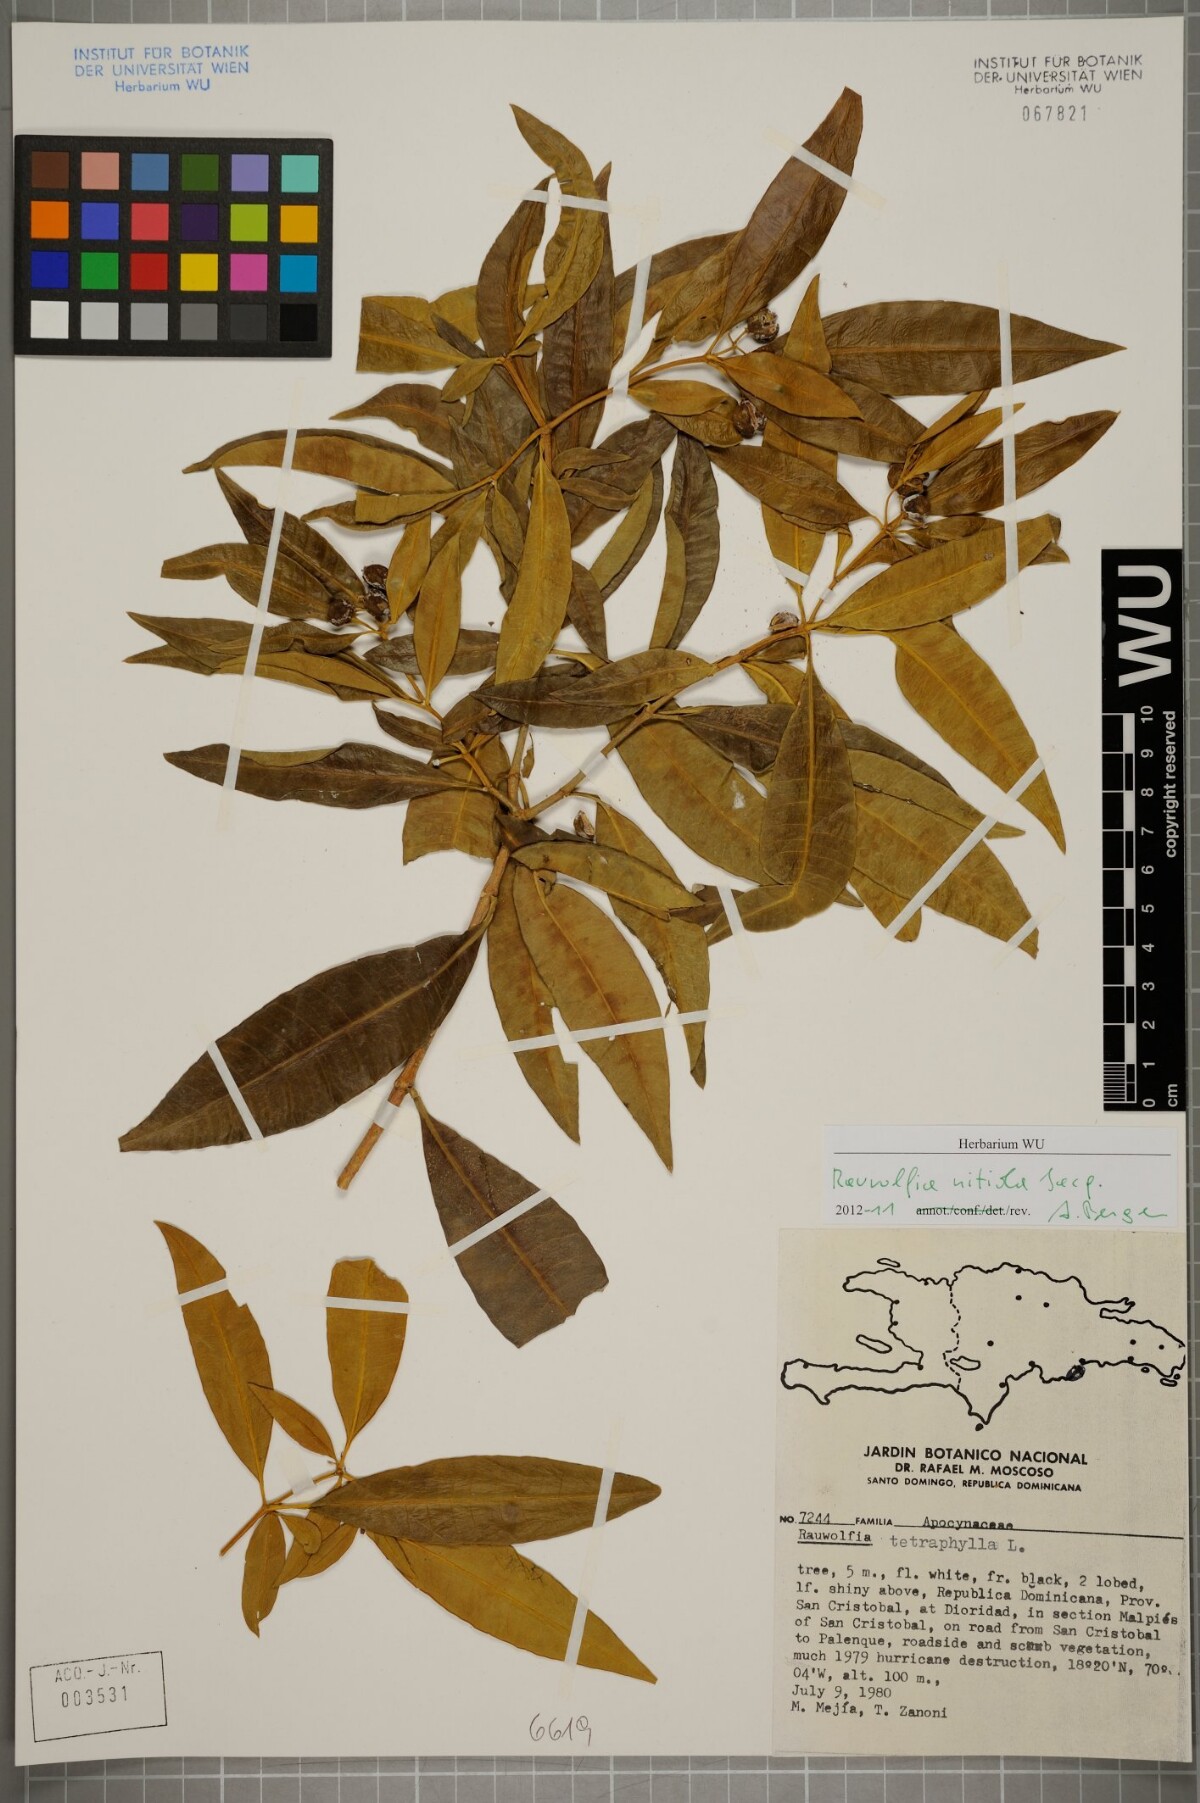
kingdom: Plantae
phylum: Tracheophyta
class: Magnoliopsida
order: Gentianales
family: Apocynaceae
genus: Rauvolfia
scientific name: Rauvolfia nitida
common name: Bitter-ash
